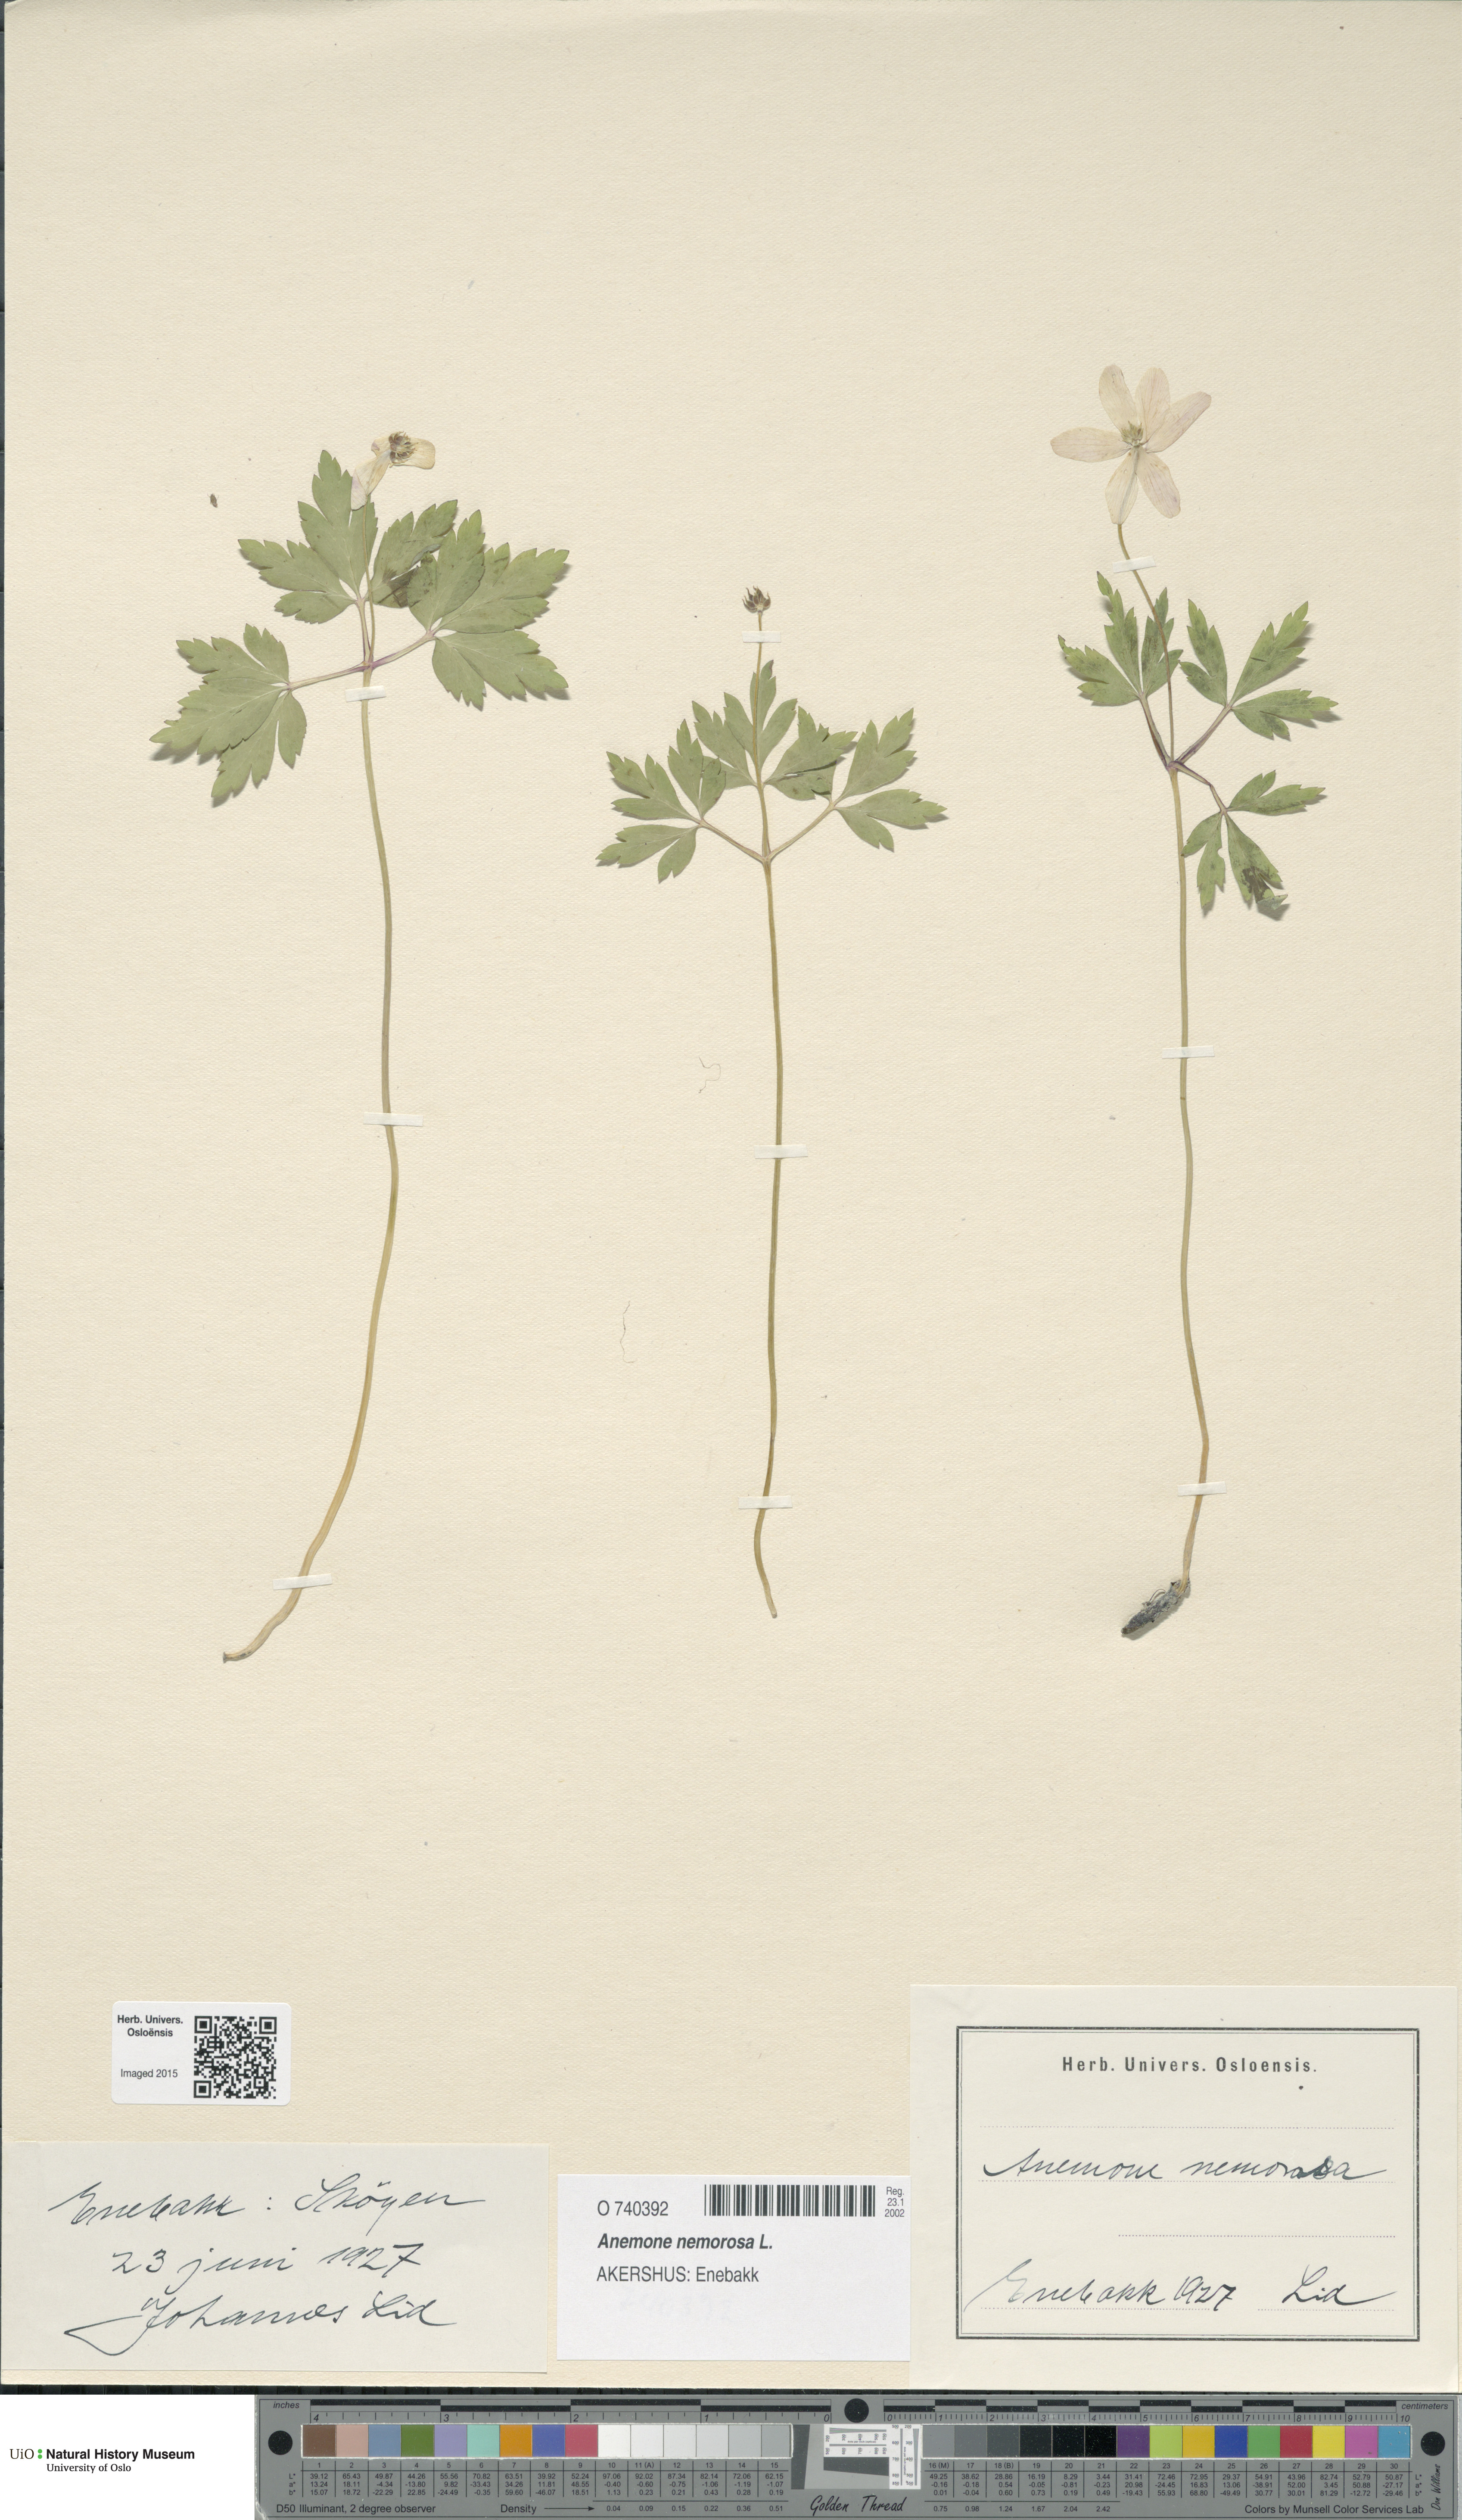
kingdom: Plantae
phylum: Tracheophyta
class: Magnoliopsida
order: Ranunculales
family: Ranunculaceae
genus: Anemone
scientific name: Anemone nemorosa
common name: Wood anemone
